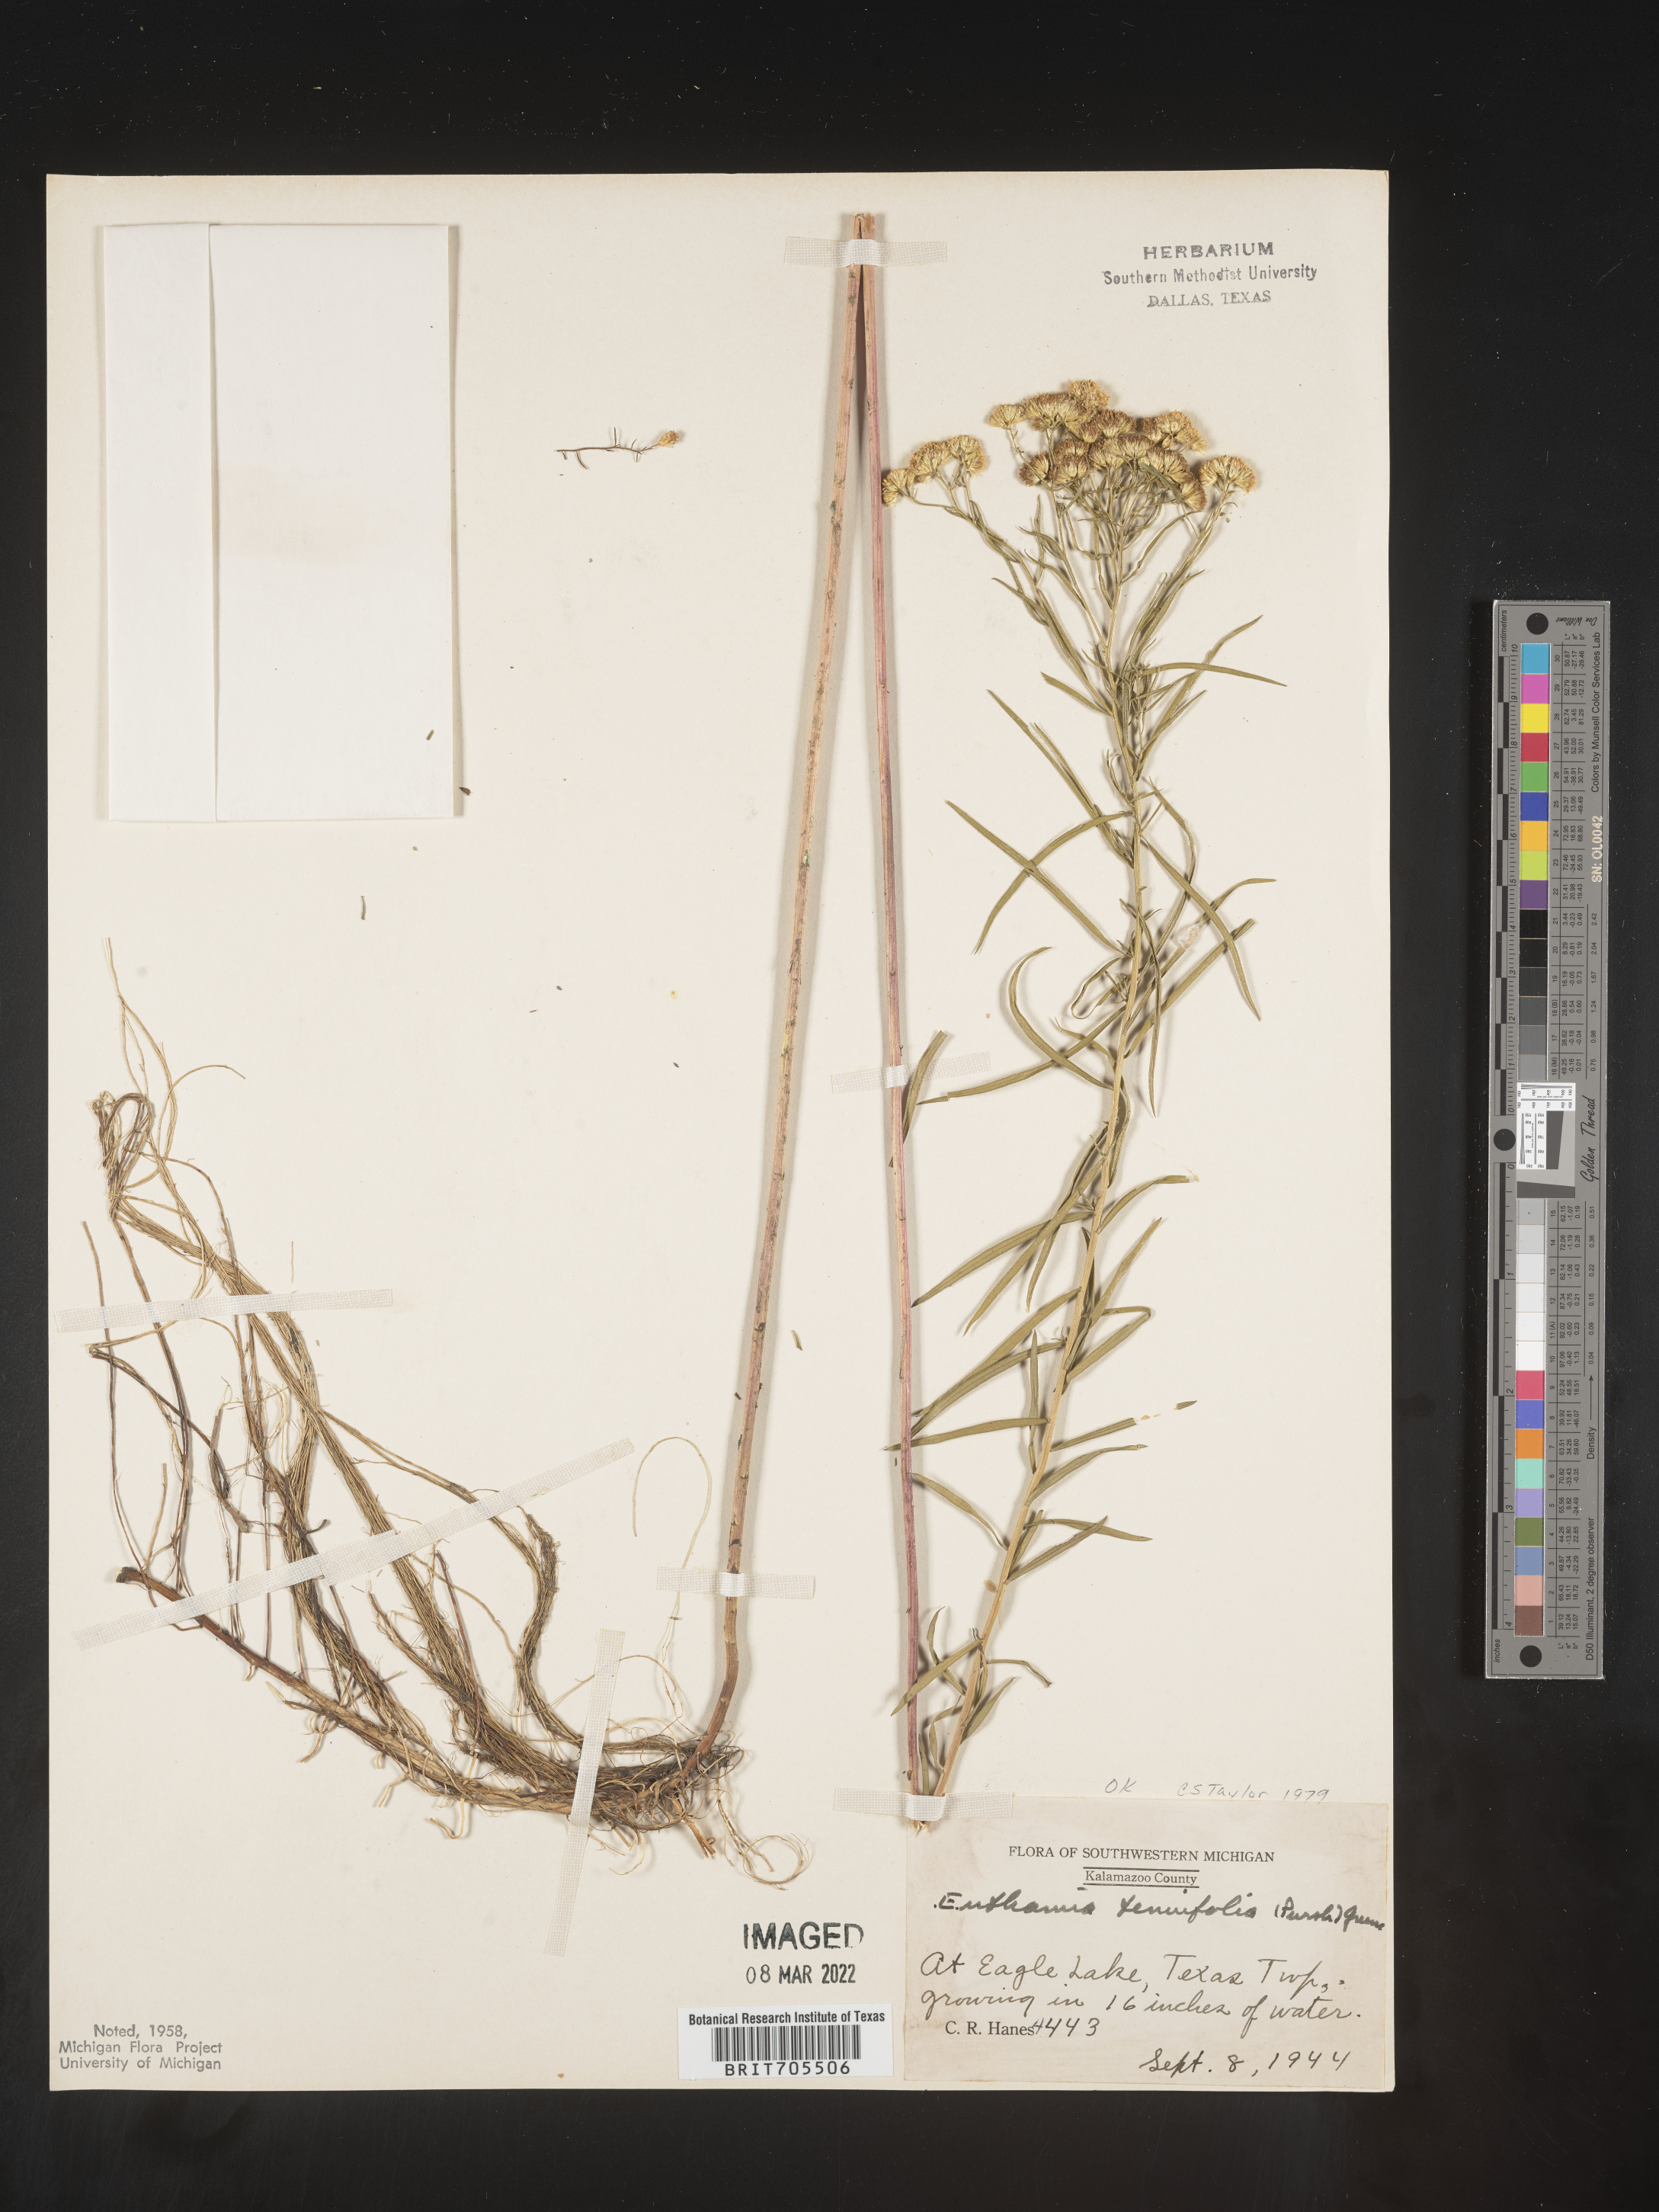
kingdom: Plantae
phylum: Tracheophyta
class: Magnoliopsida
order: Asterales
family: Asteraceae
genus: Euthamia
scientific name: Euthamia caroliniana
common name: Coastal plain goldentop
